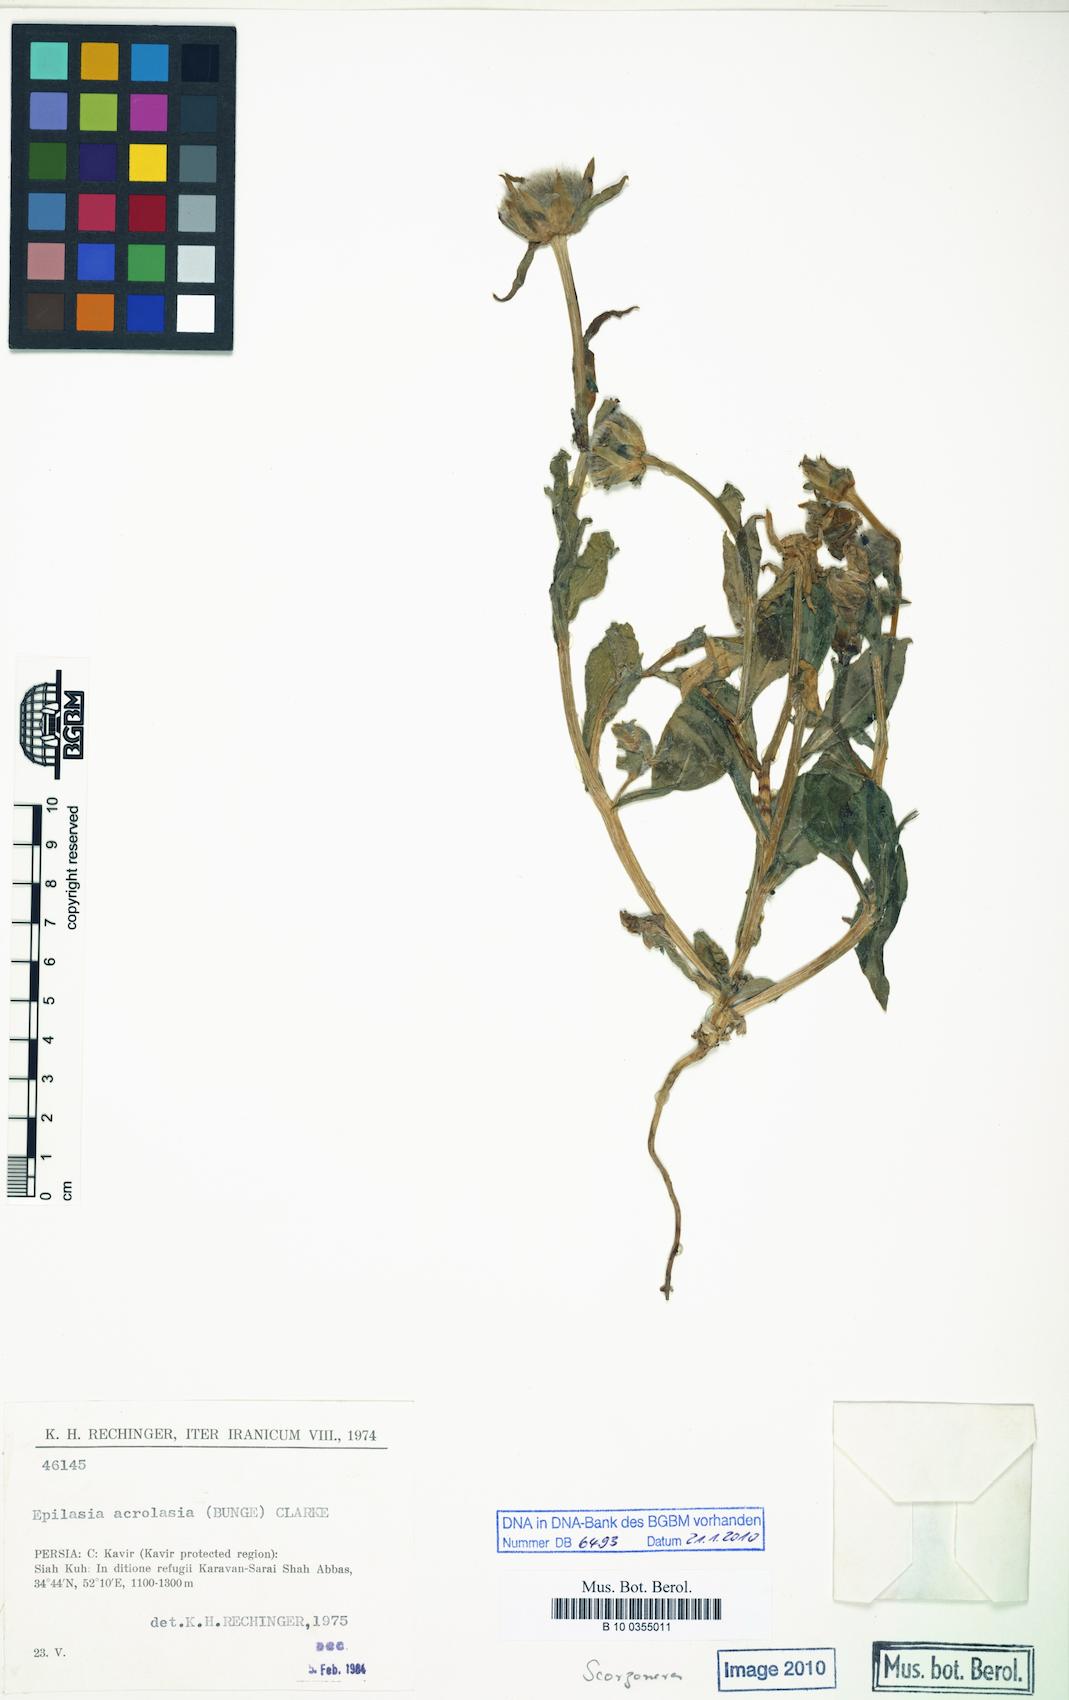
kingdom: Plantae
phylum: Tracheophyta
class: Magnoliopsida
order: Asterales
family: Asteraceae
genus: Epilasia
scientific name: Epilasia acrolasia
